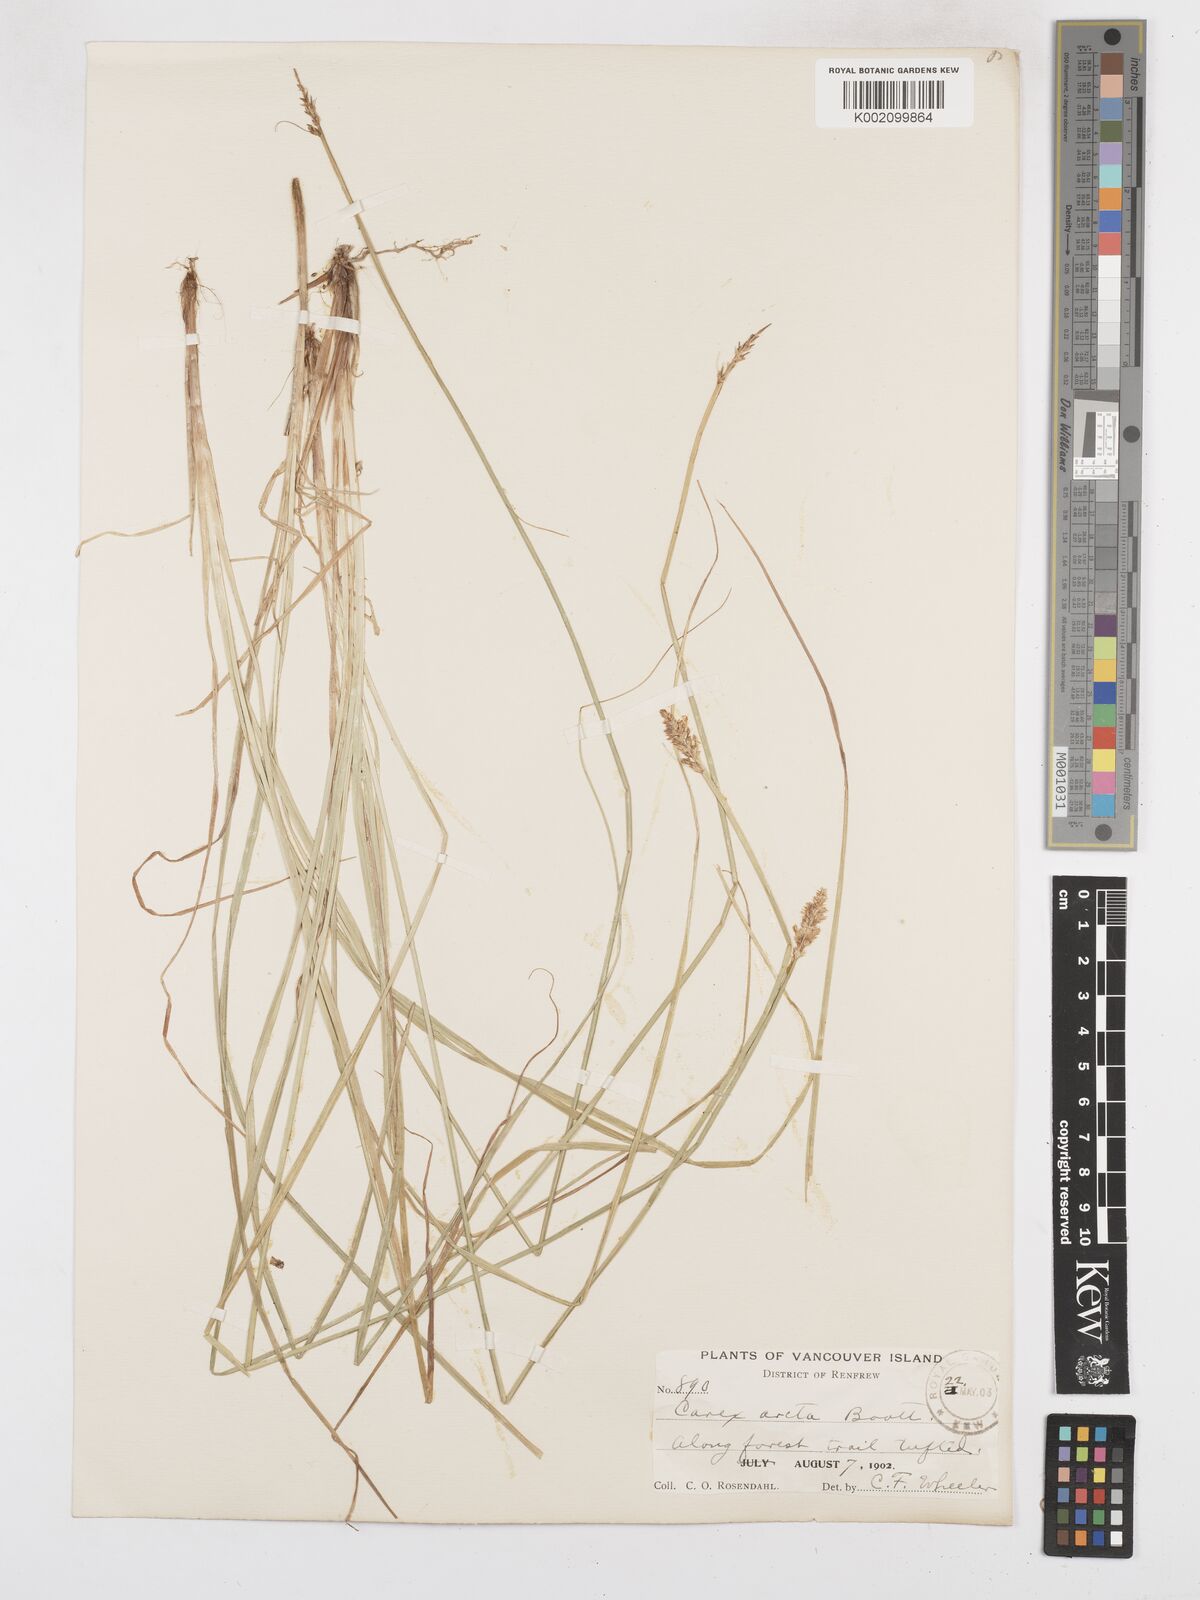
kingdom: Plantae
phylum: Tracheophyta
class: Liliopsida
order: Poales
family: Cyperaceae
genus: Carex
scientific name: Carex arcta
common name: Bear sedge
